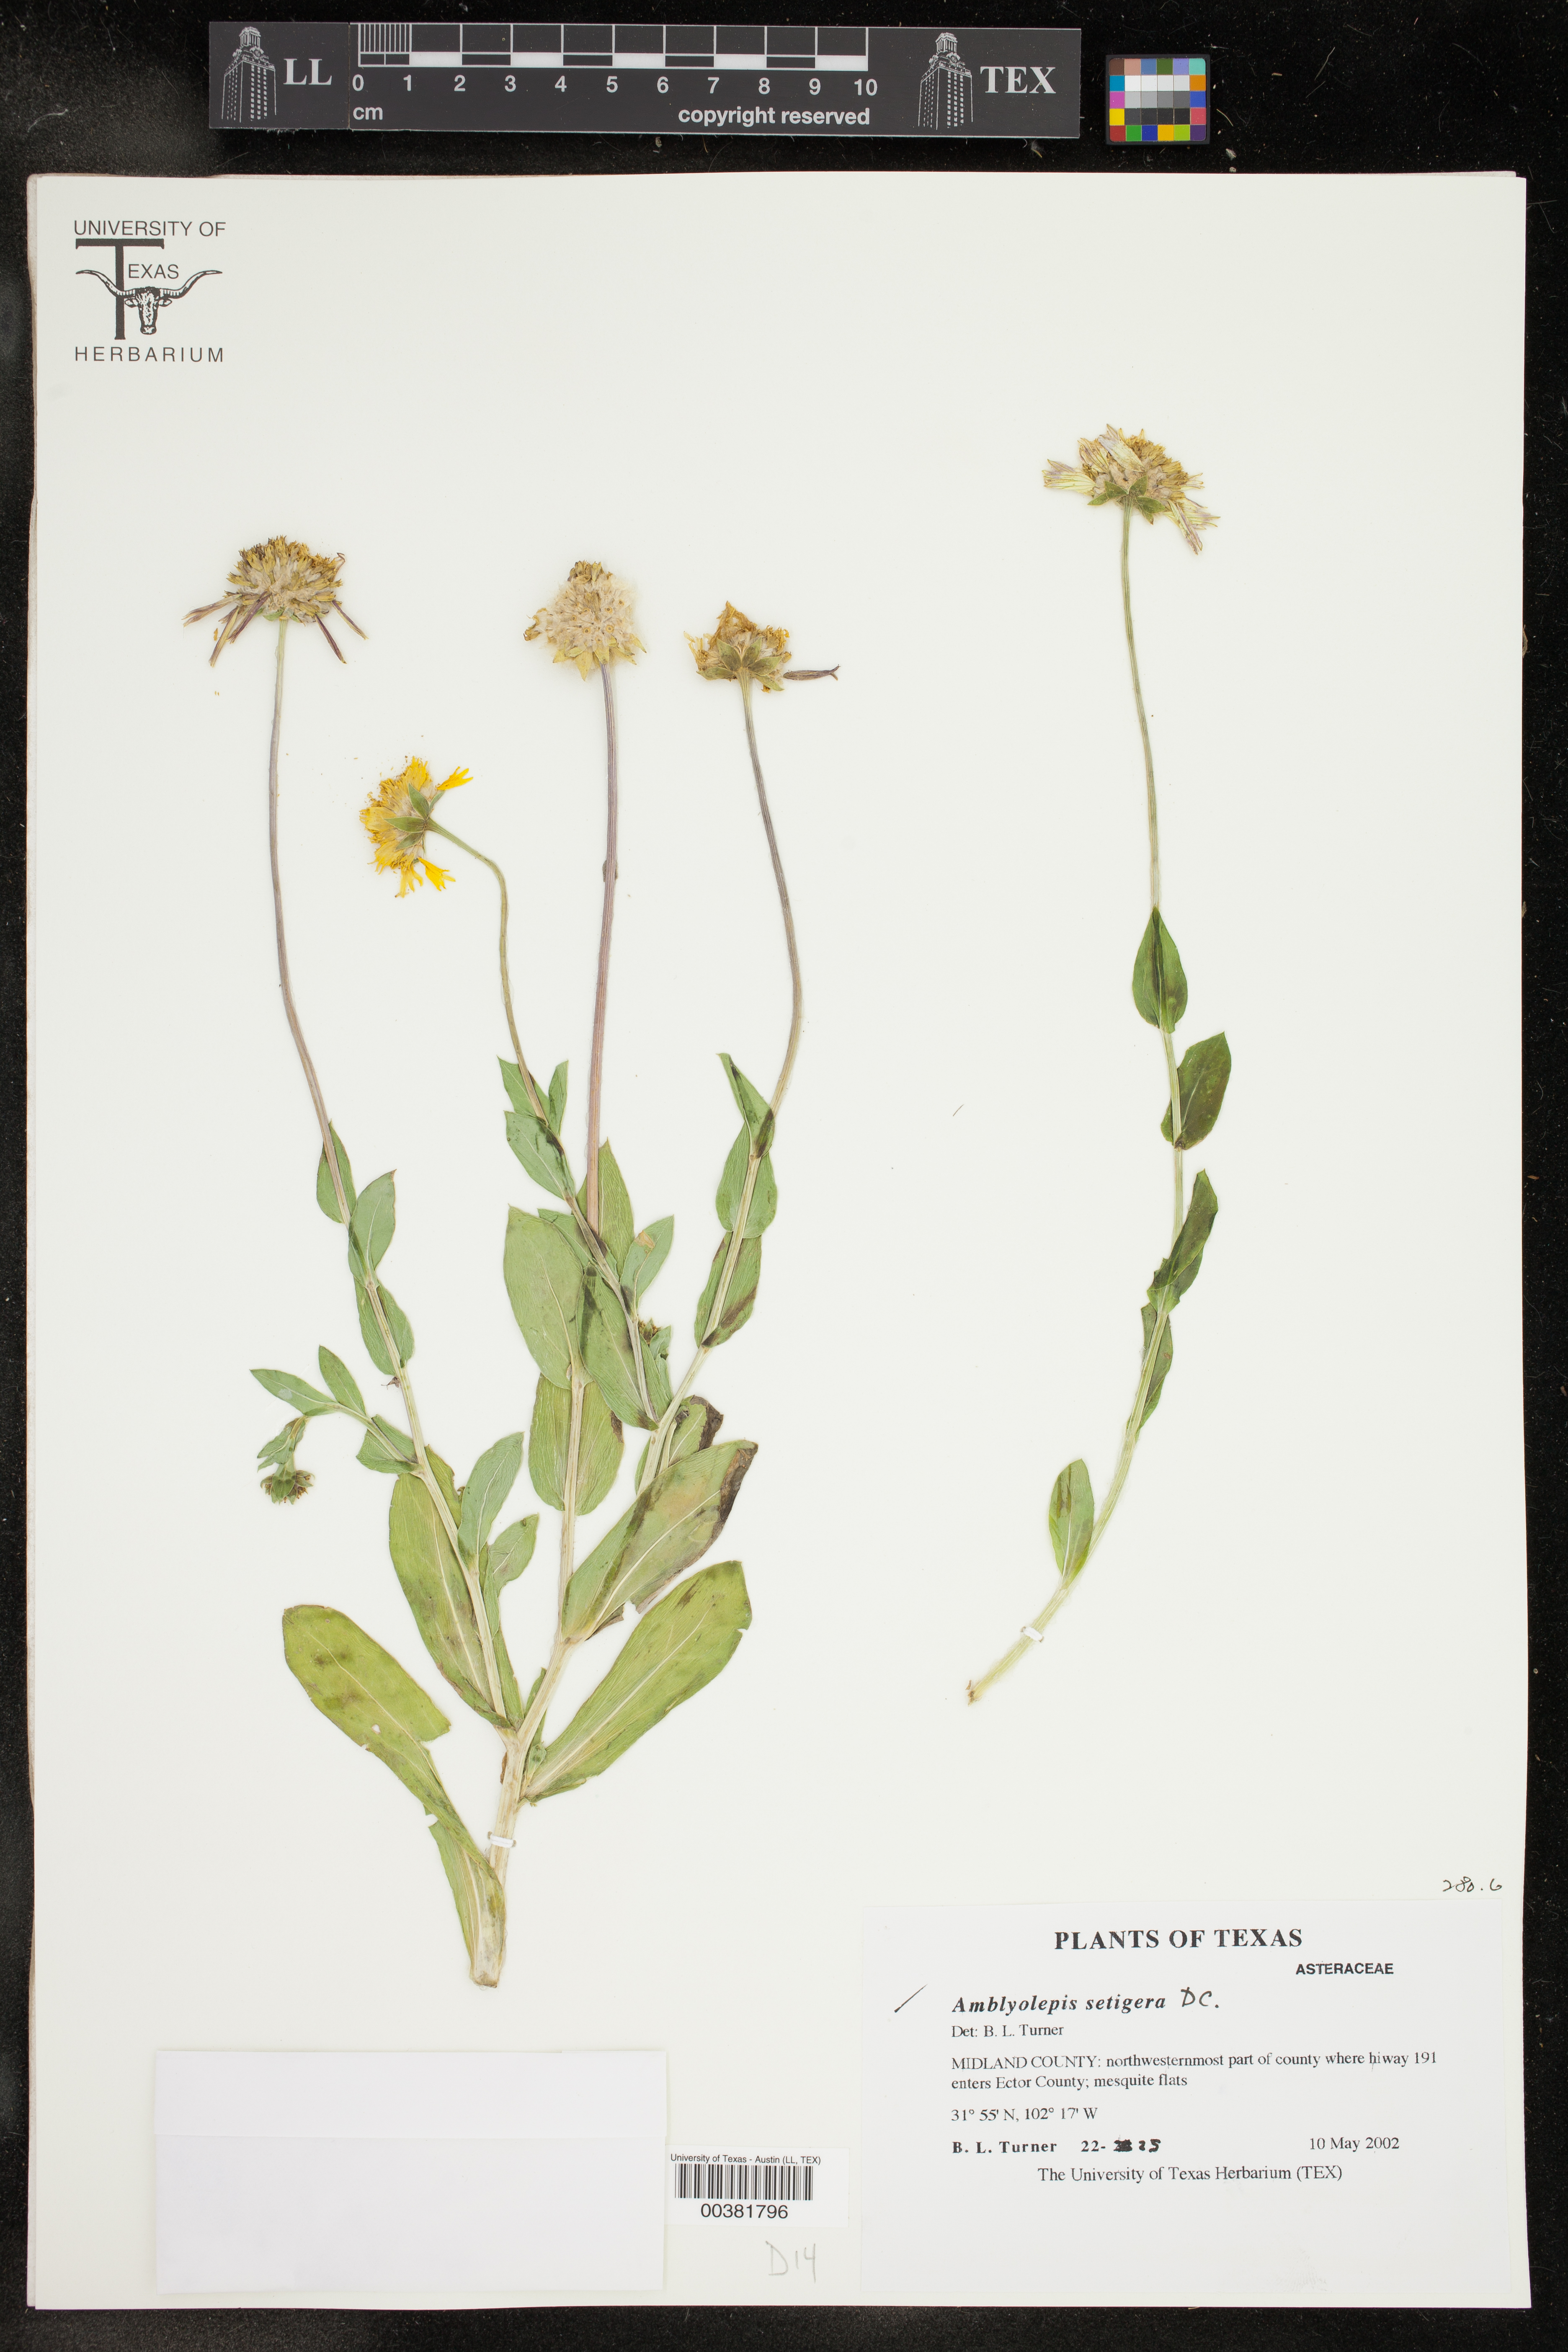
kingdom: Plantae
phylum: Tracheophyta
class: Magnoliopsida
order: Asterales
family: Asteraceae
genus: Amblyolepis
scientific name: Amblyolepis setigera
